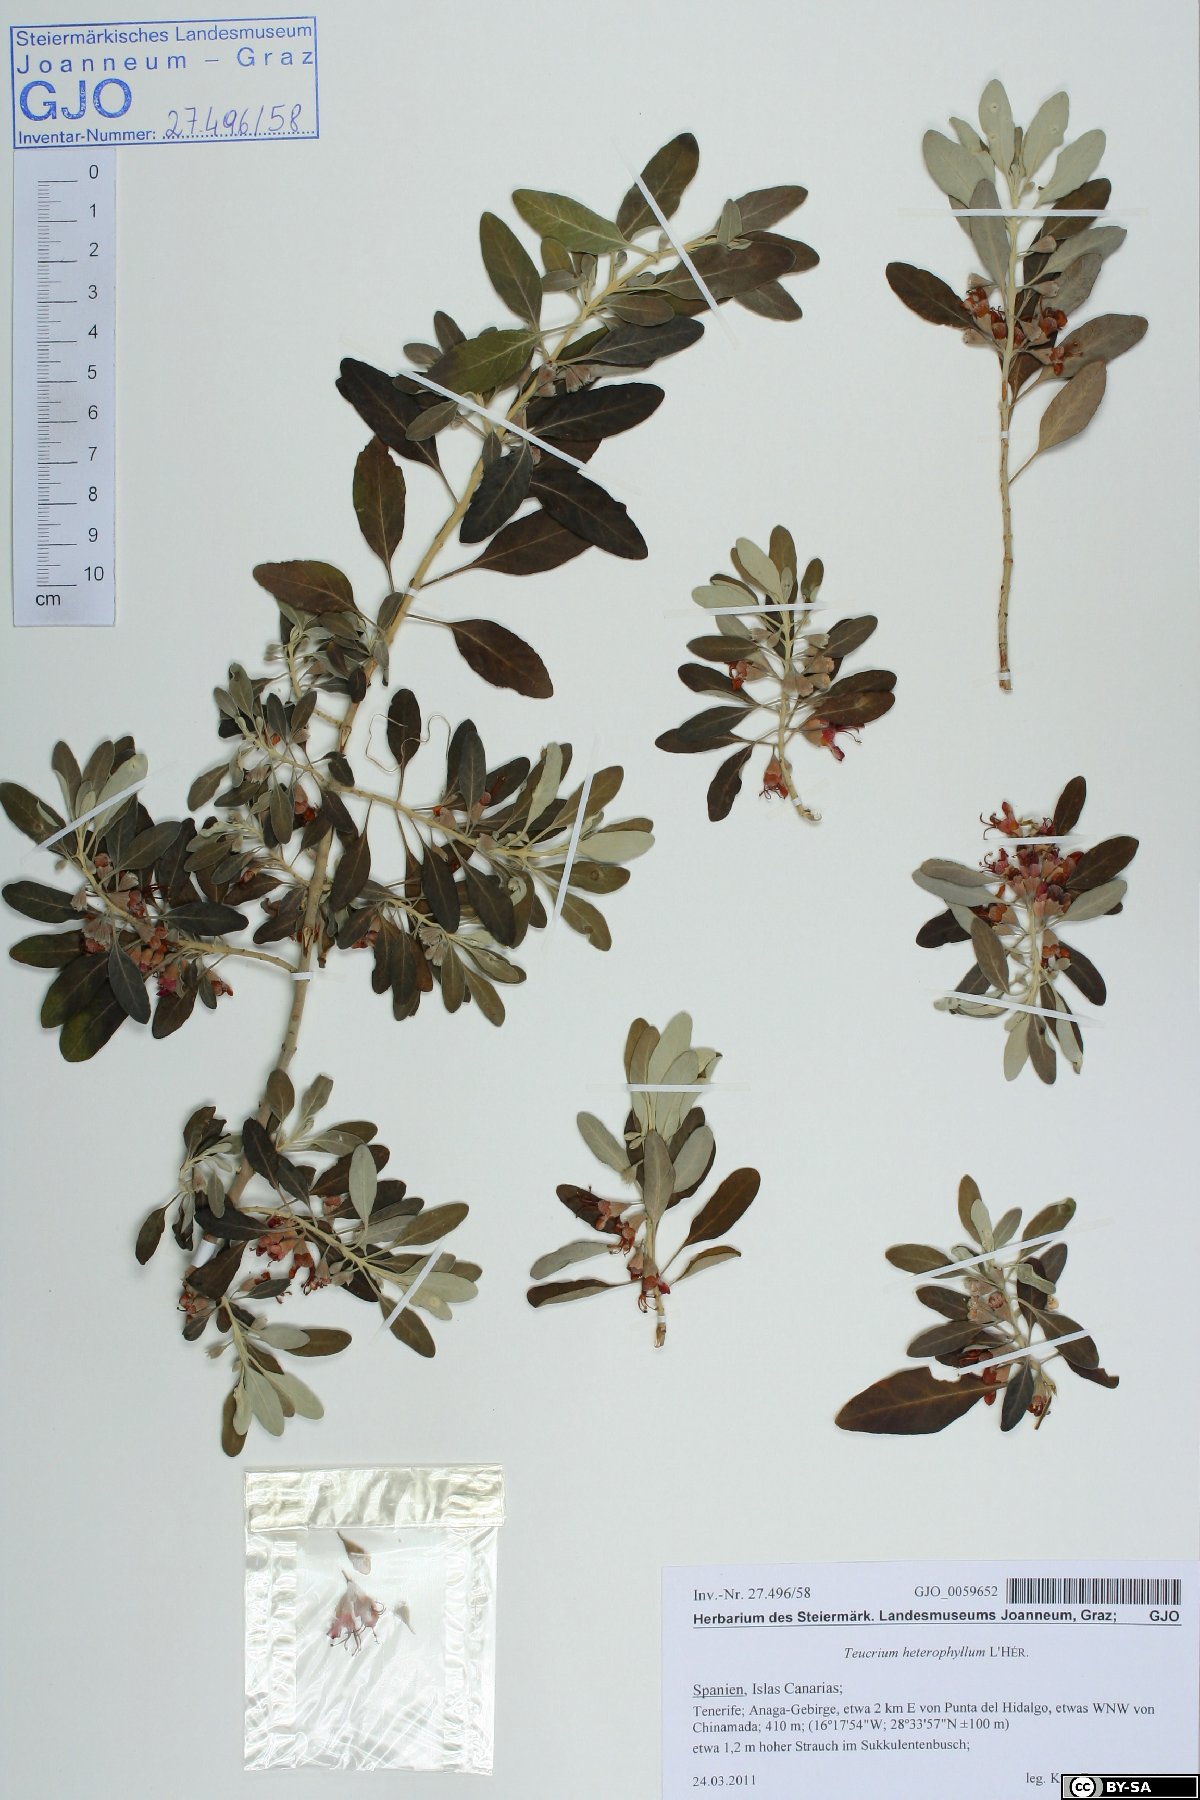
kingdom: Plantae
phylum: Tracheophyta
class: Magnoliopsida
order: Lamiales
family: Lamiaceae
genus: Teucrium
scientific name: Teucrium heterophyllum
